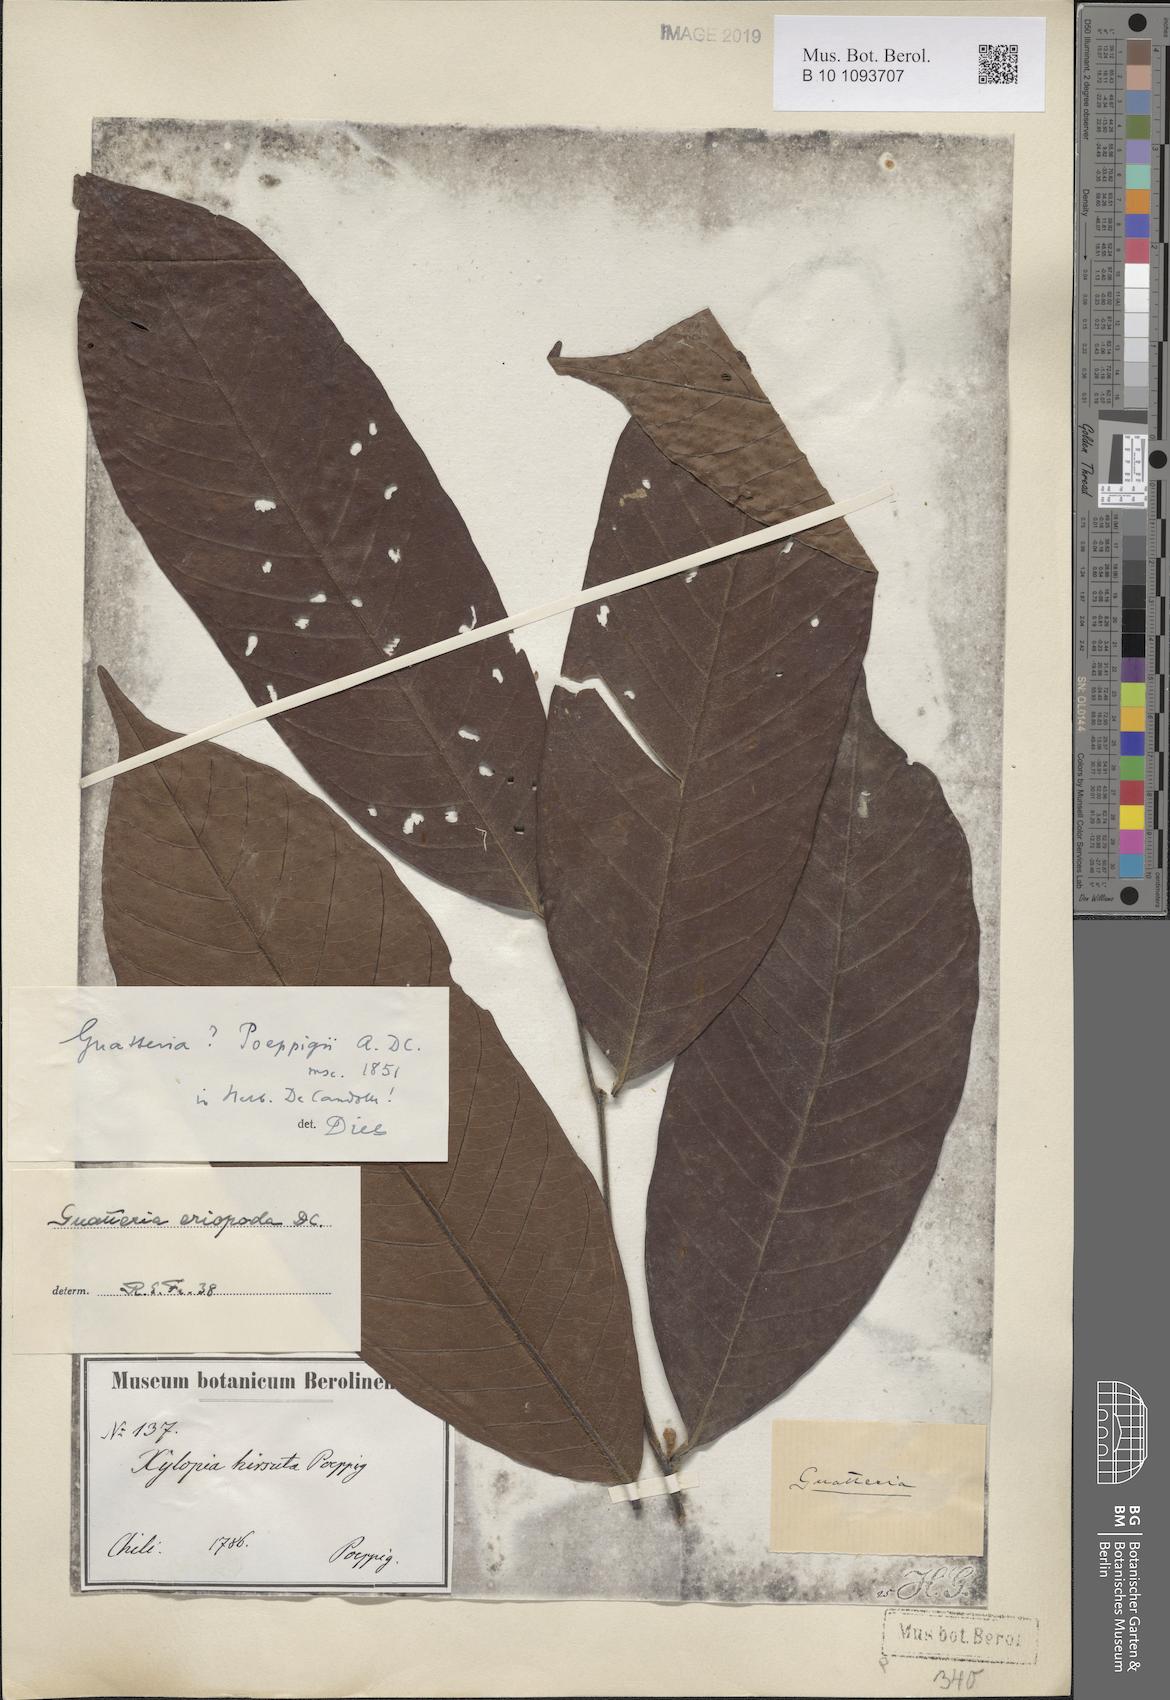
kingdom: Plantae
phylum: Tracheophyta
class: Magnoliopsida
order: Magnoliales
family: Annonaceae
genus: Guatteria
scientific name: Guatteria eriopoda
